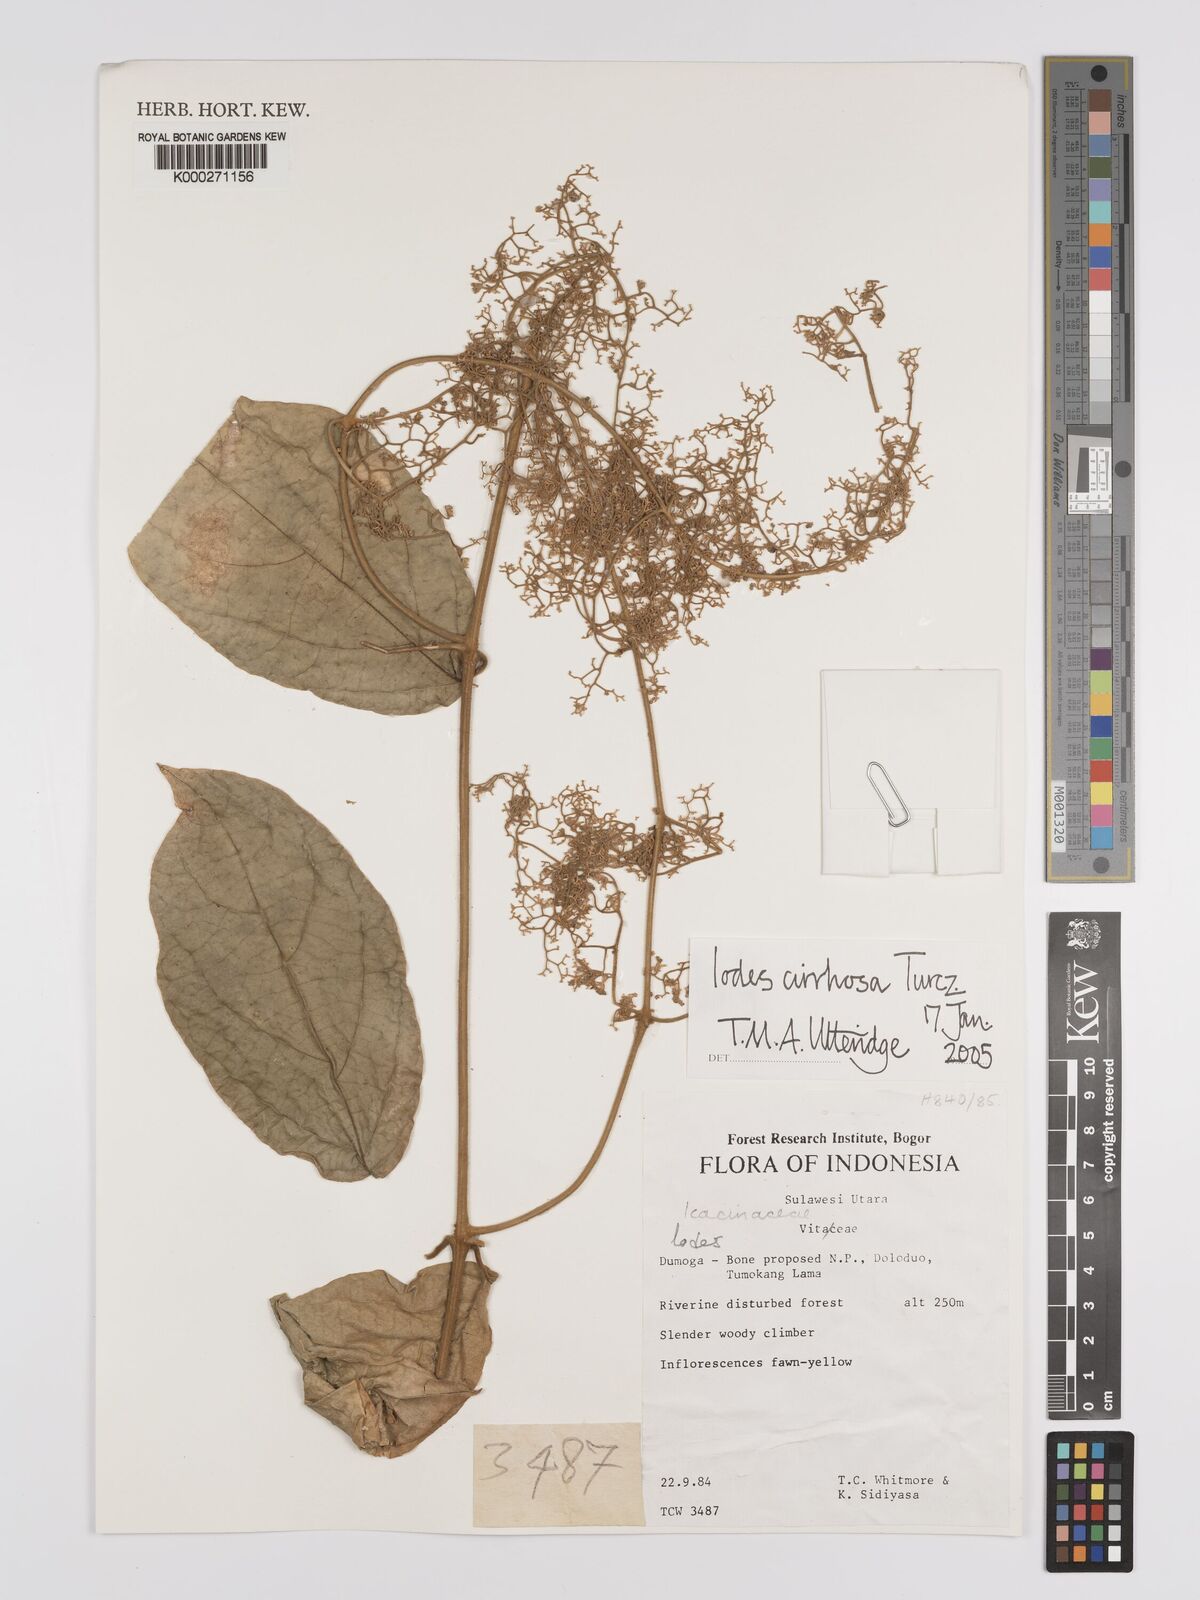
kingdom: Plantae
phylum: Tracheophyta
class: Magnoliopsida
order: Icacinales
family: Icacinaceae
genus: Iodes
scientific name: Iodes cirrhosa
